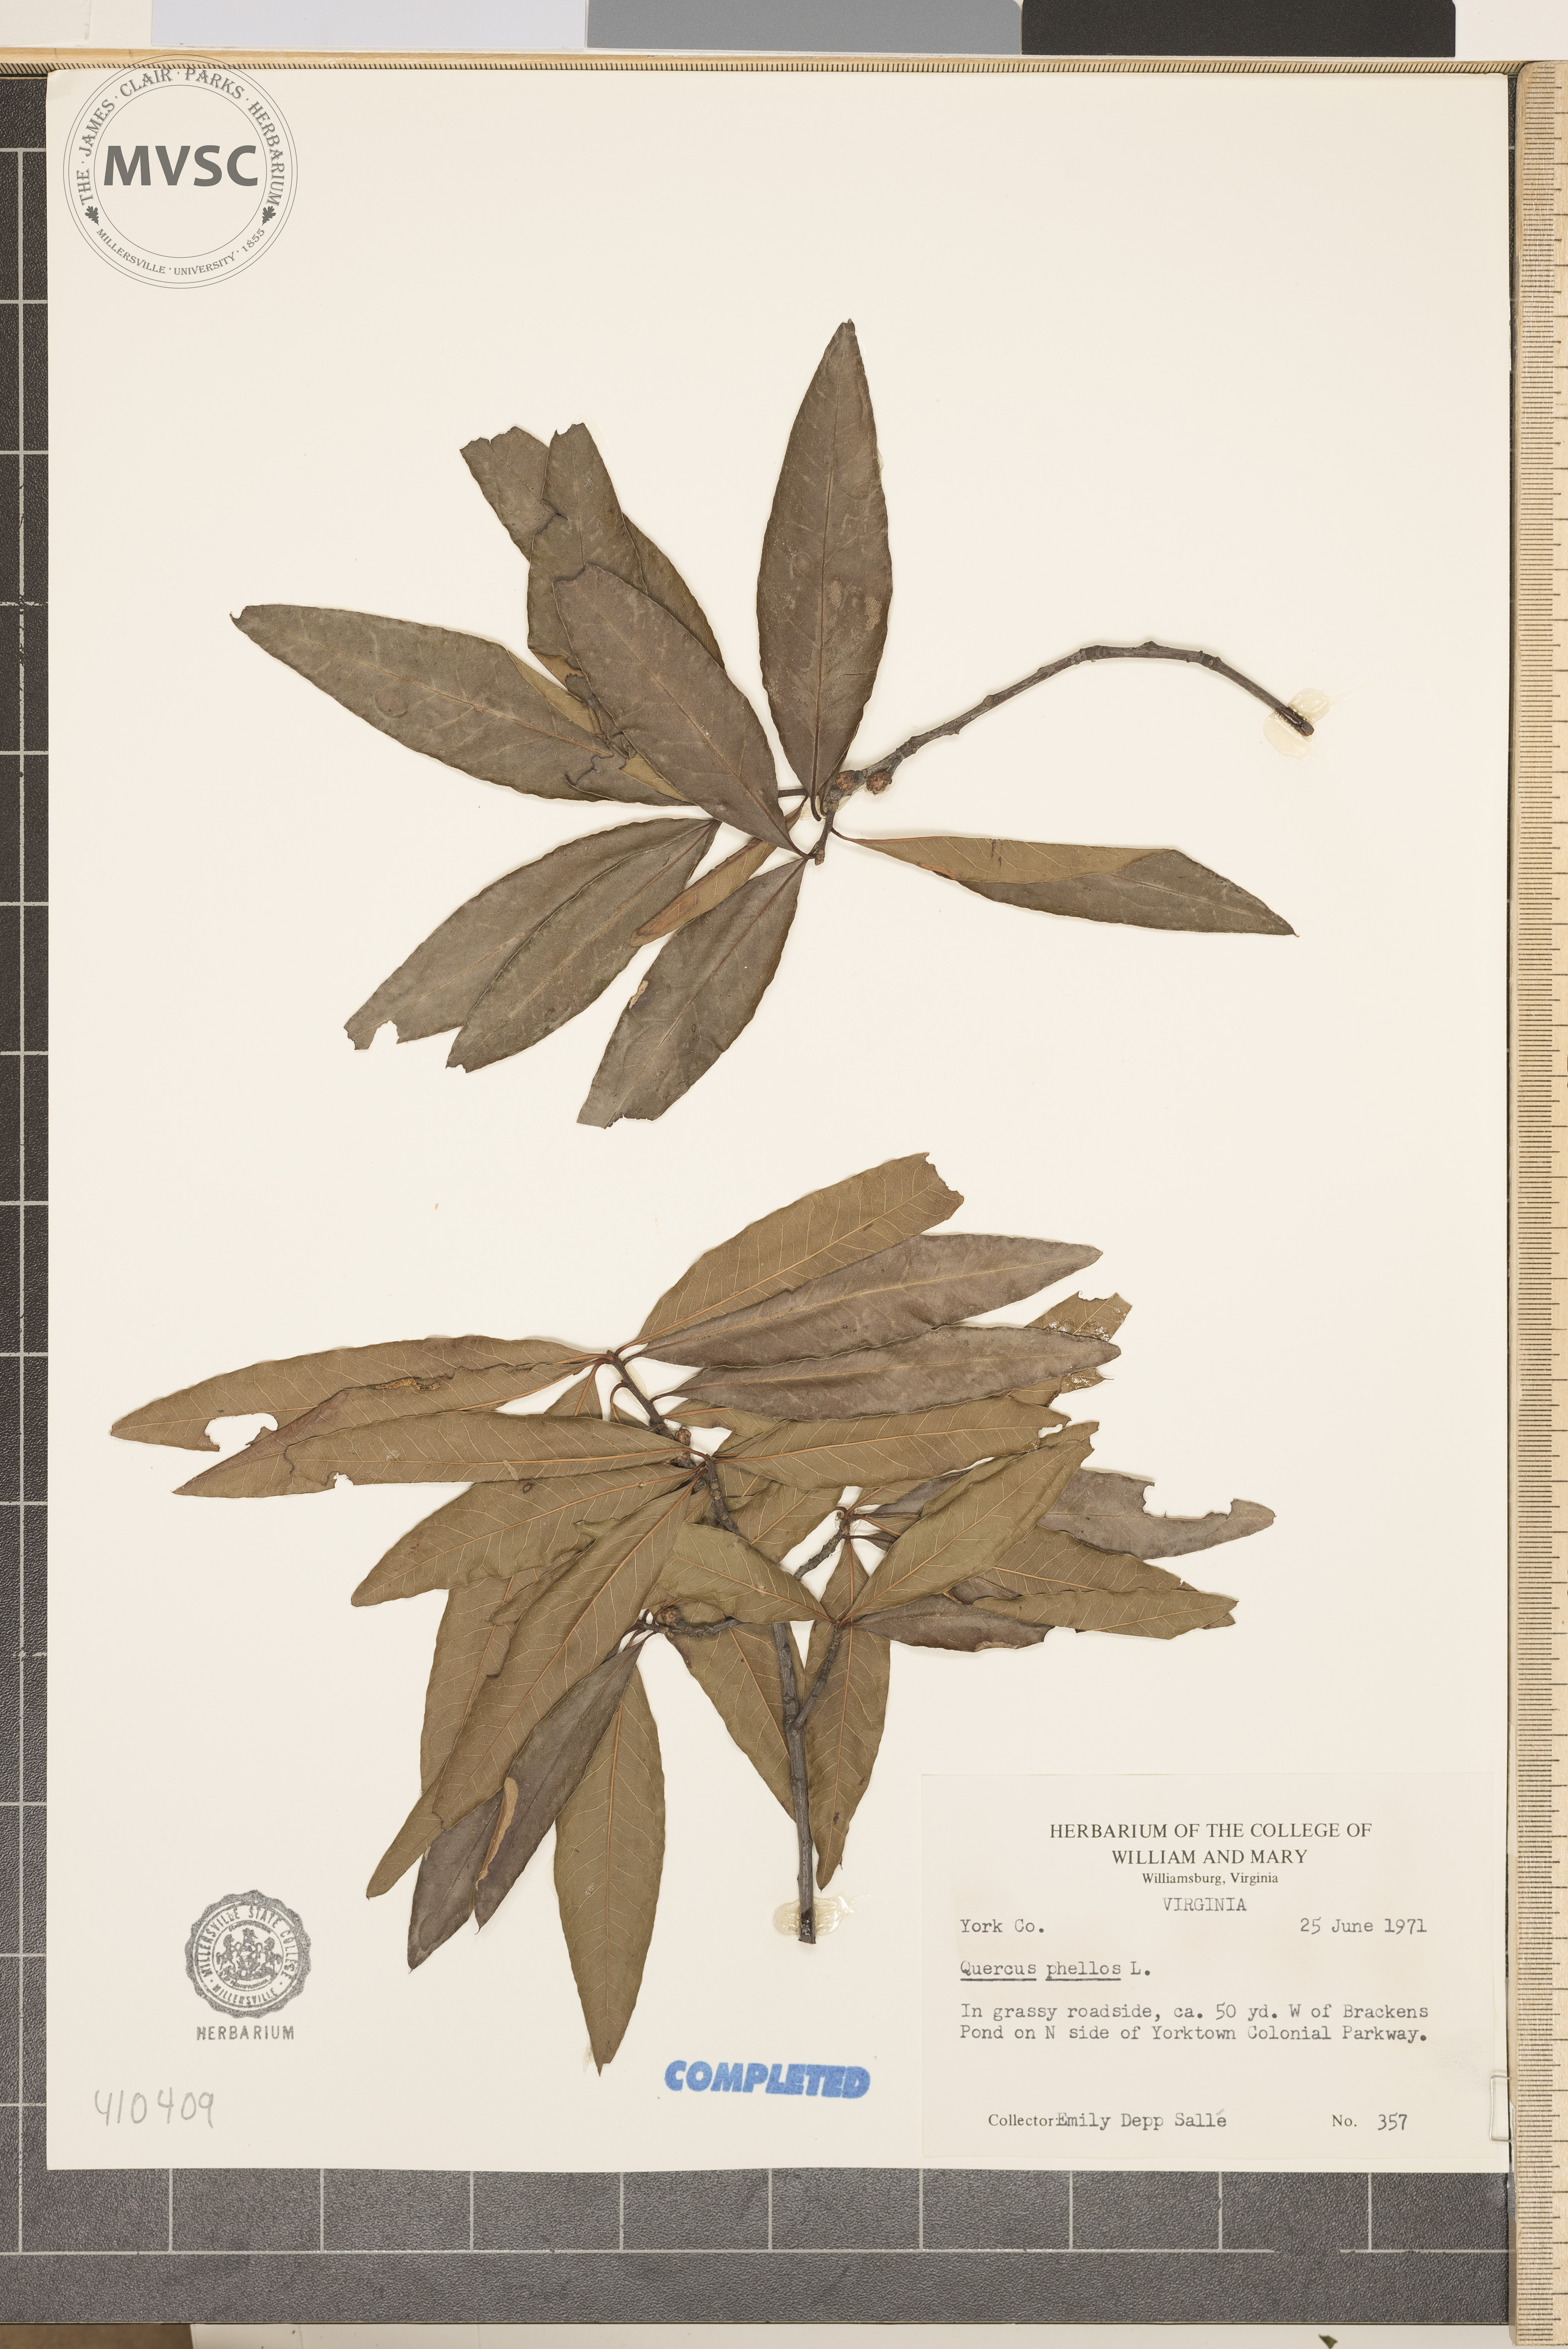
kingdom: Plantae
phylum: Tracheophyta
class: Magnoliopsida
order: Fagales
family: Fagaceae
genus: Quercus
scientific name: Quercus phellos
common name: Willow oak
